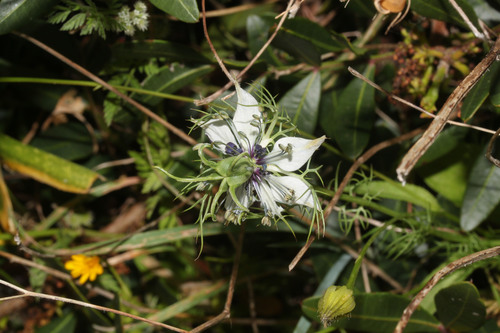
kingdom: Plantae
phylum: Tracheophyta
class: Magnoliopsida
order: Ranunculales
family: Ranunculaceae
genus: Nigella
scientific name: Nigella damascena
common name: Love-in-a-mist
